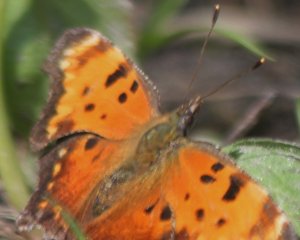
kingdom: Animalia
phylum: Arthropoda
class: Insecta
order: Lepidoptera
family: Nymphalidae
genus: Polygonia
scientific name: Polygonia progne
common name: Gray Comma
